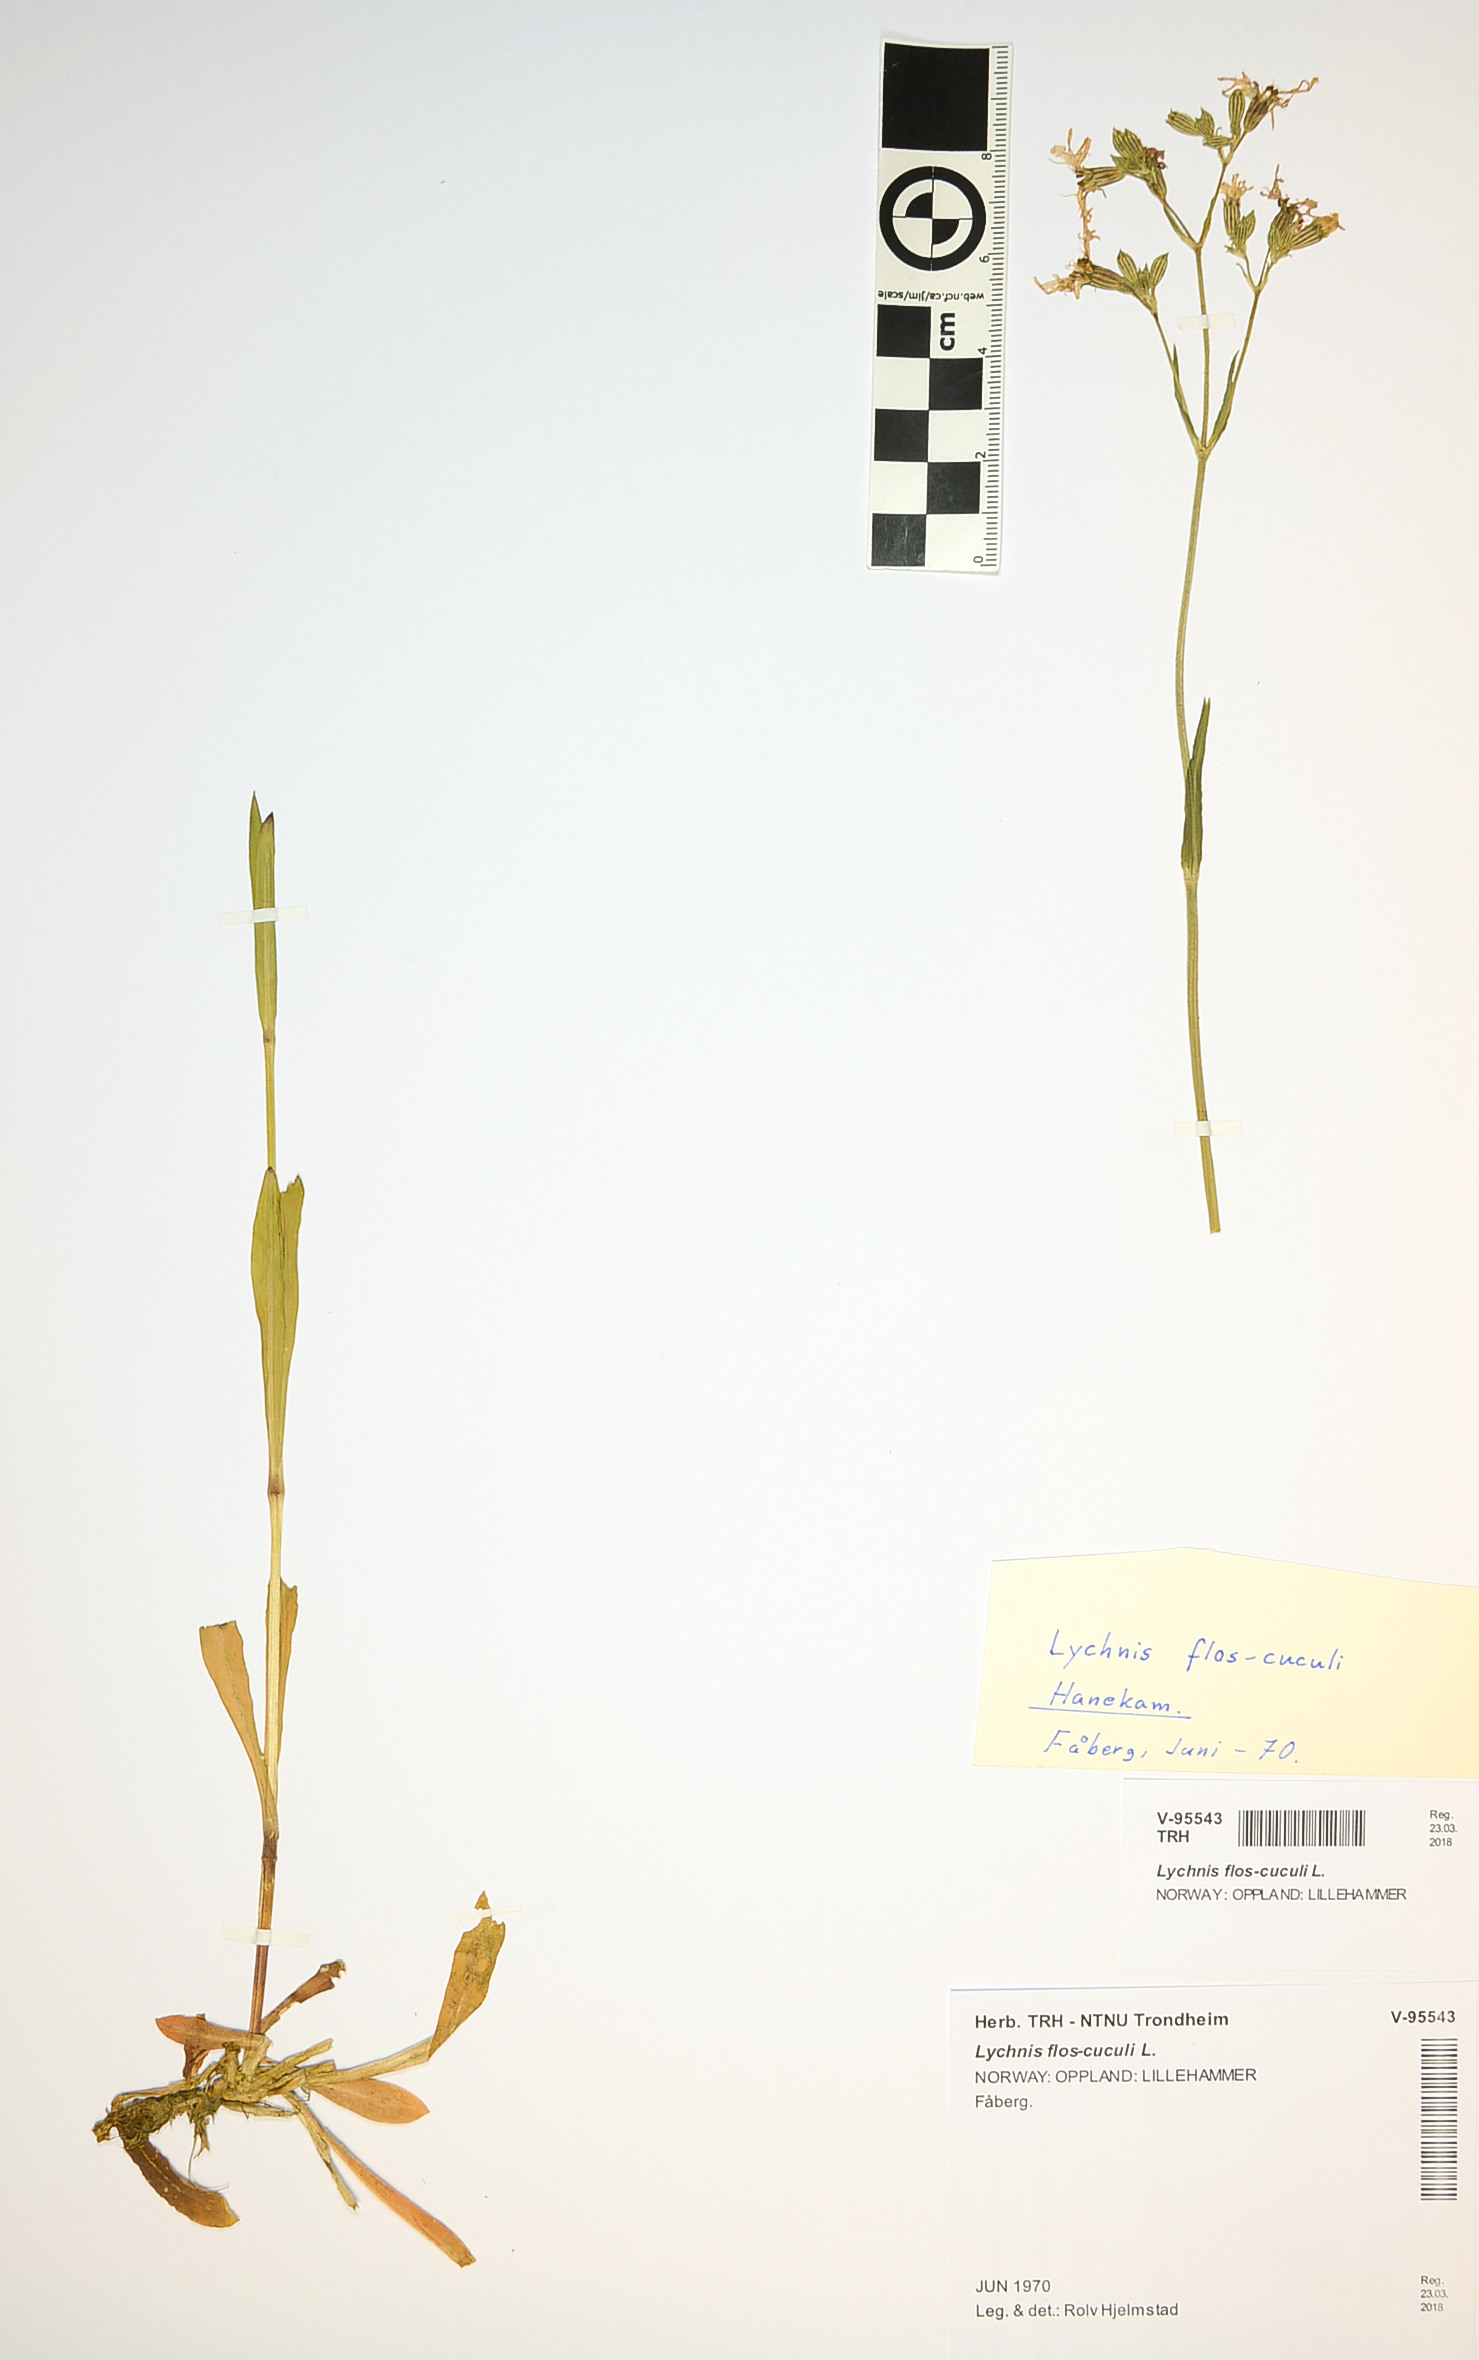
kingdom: Plantae
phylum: Tracheophyta
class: Magnoliopsida
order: Caryophyllales
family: Caryophyllaceae
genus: Silene
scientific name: Silene flos-cuculi
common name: Ragged-robin
